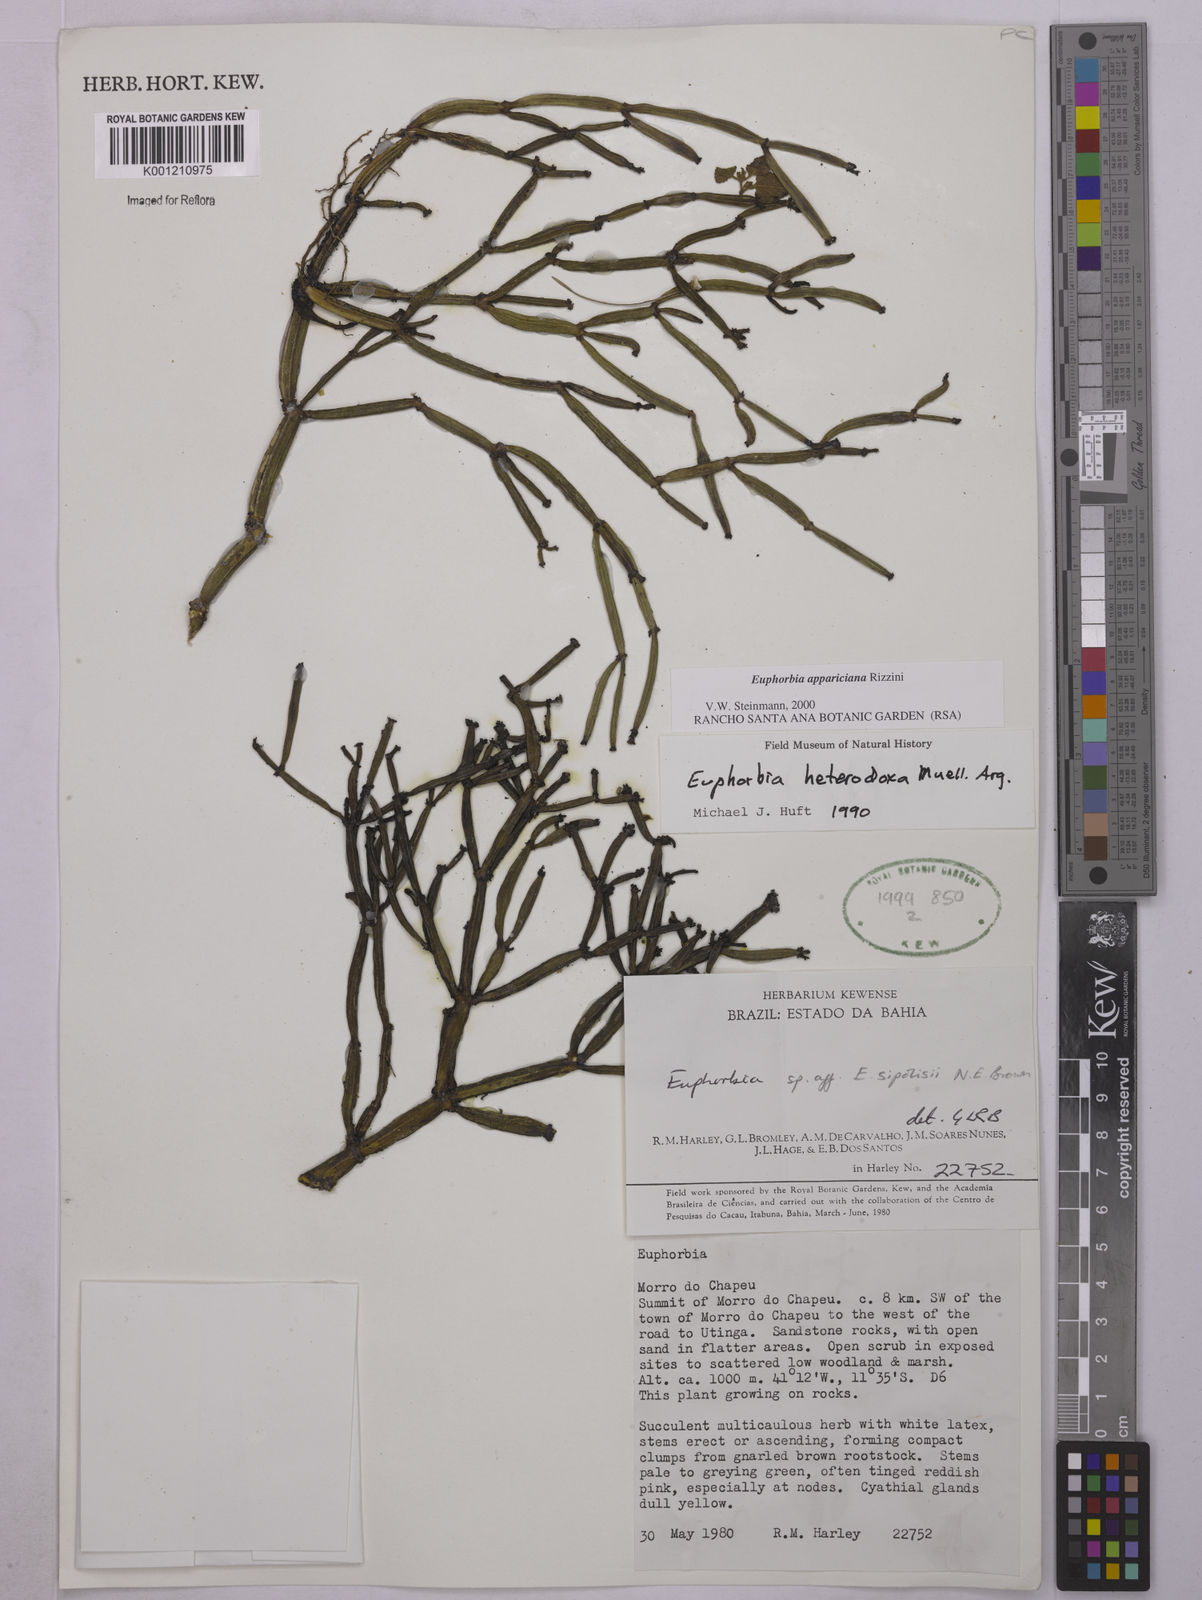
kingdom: Plantae
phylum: Tracheophyta
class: Magnoliopsida
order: Malpighiales
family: Euphorbiaceae
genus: Euphorbia
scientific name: Euphorbia appariciana
